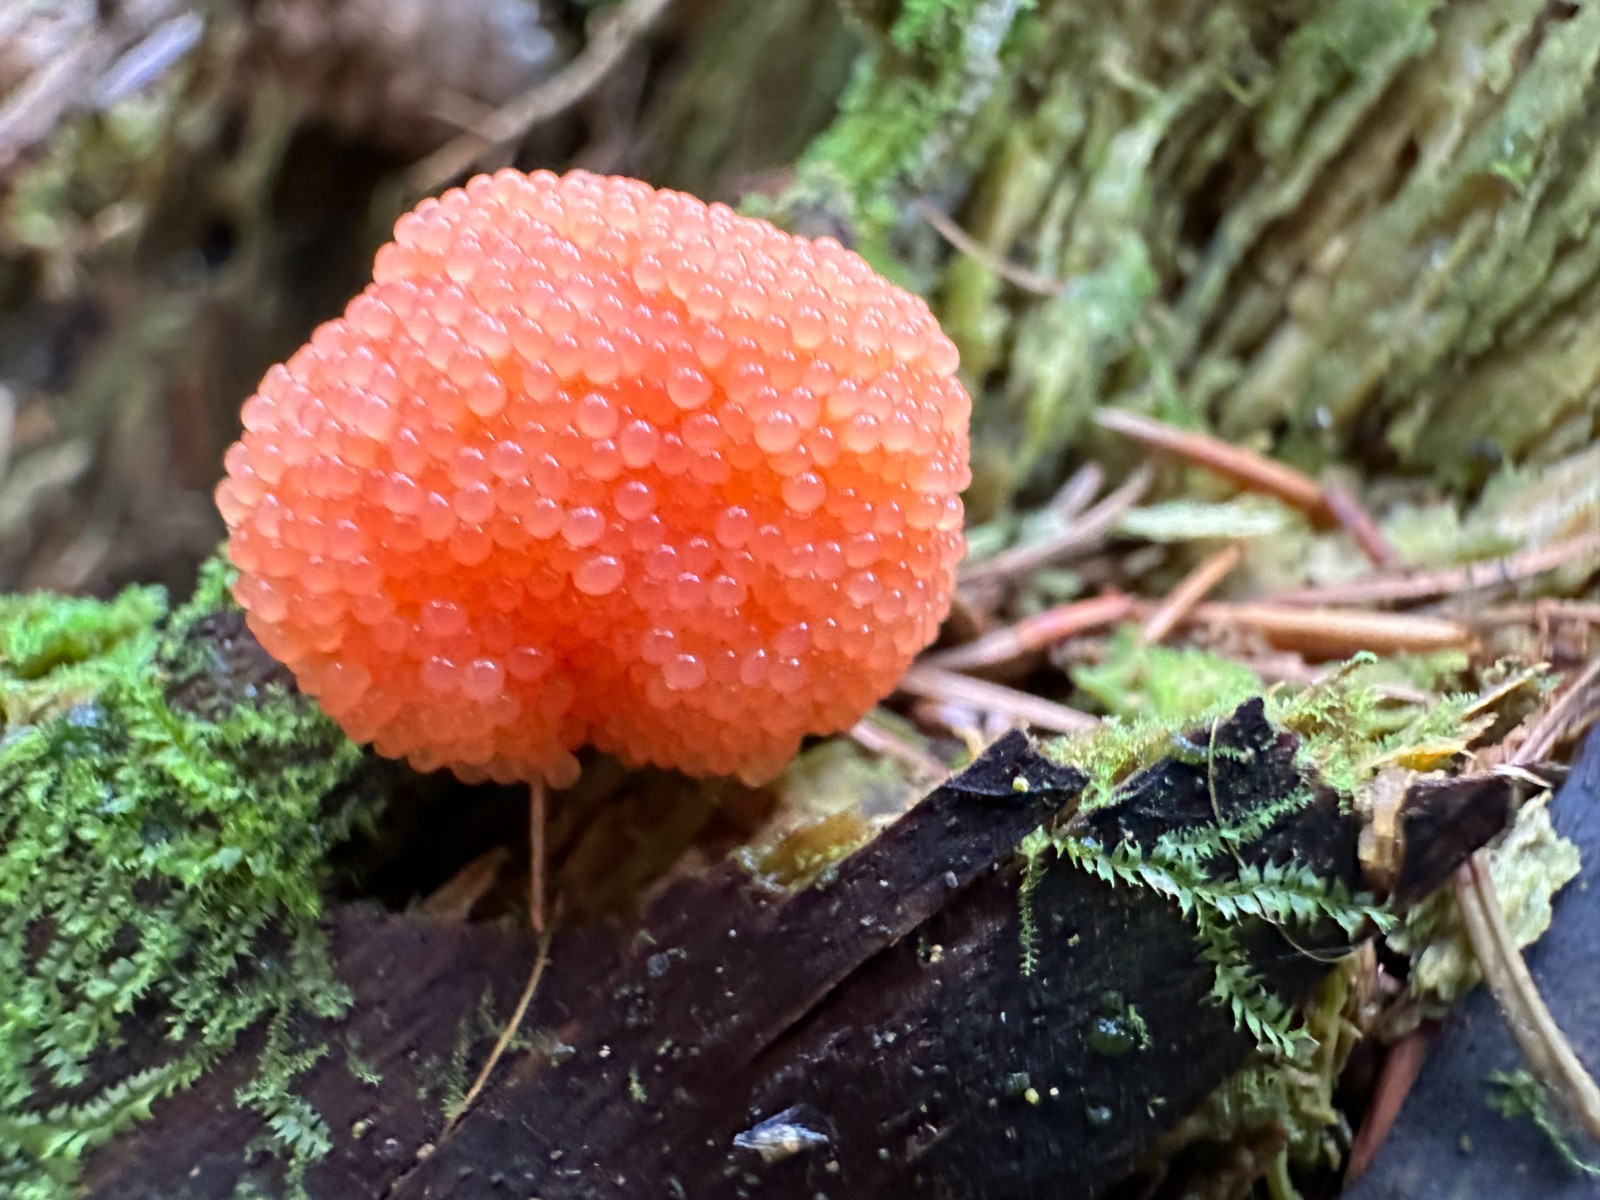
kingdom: Protozoa
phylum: Mycetozoa
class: Myxomycetes
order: Cribrariales
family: Tubiferaceae
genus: Tubifera
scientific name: Tubifera ferruginosa
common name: kanel-støvrør
